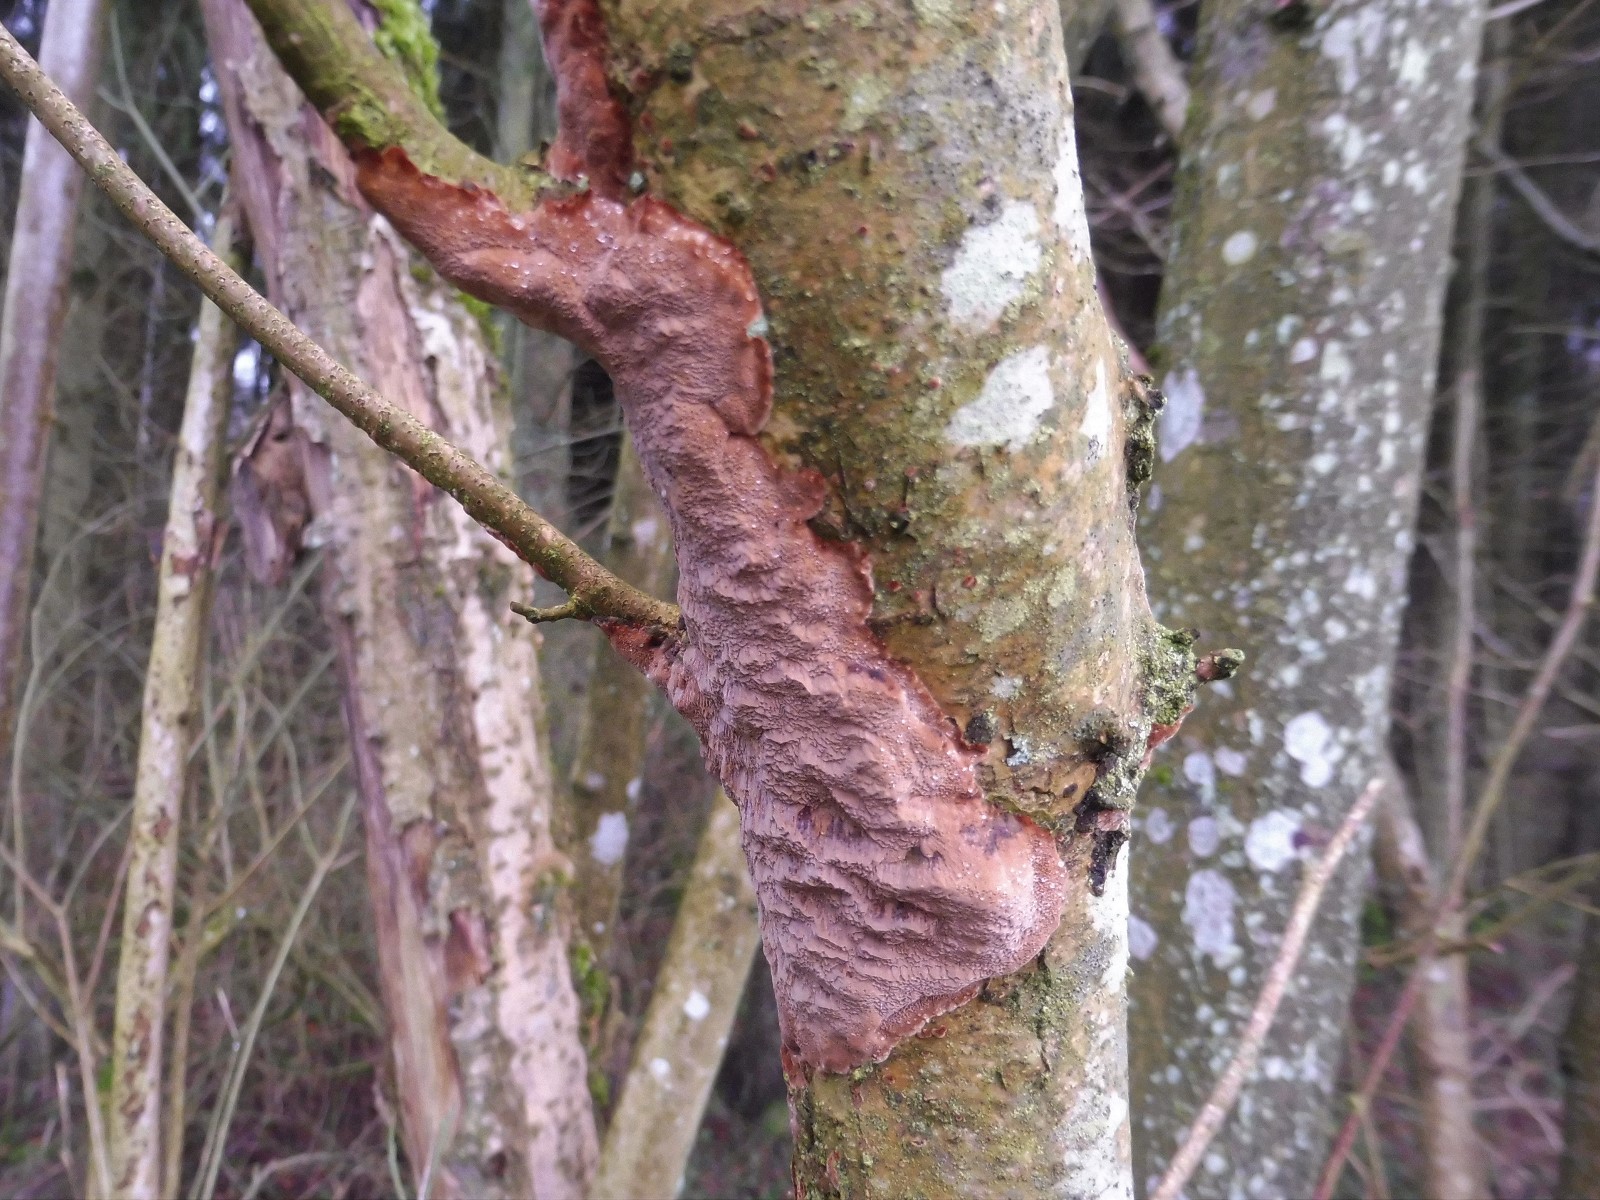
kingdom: Fungi
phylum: Basidiomycota
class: Agaricomycetes
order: Hymenochaetales
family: Hymenochaetaceae
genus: Fuscoporia
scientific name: Fuscoporia ferrea
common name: skorpe-ildporesvamp
